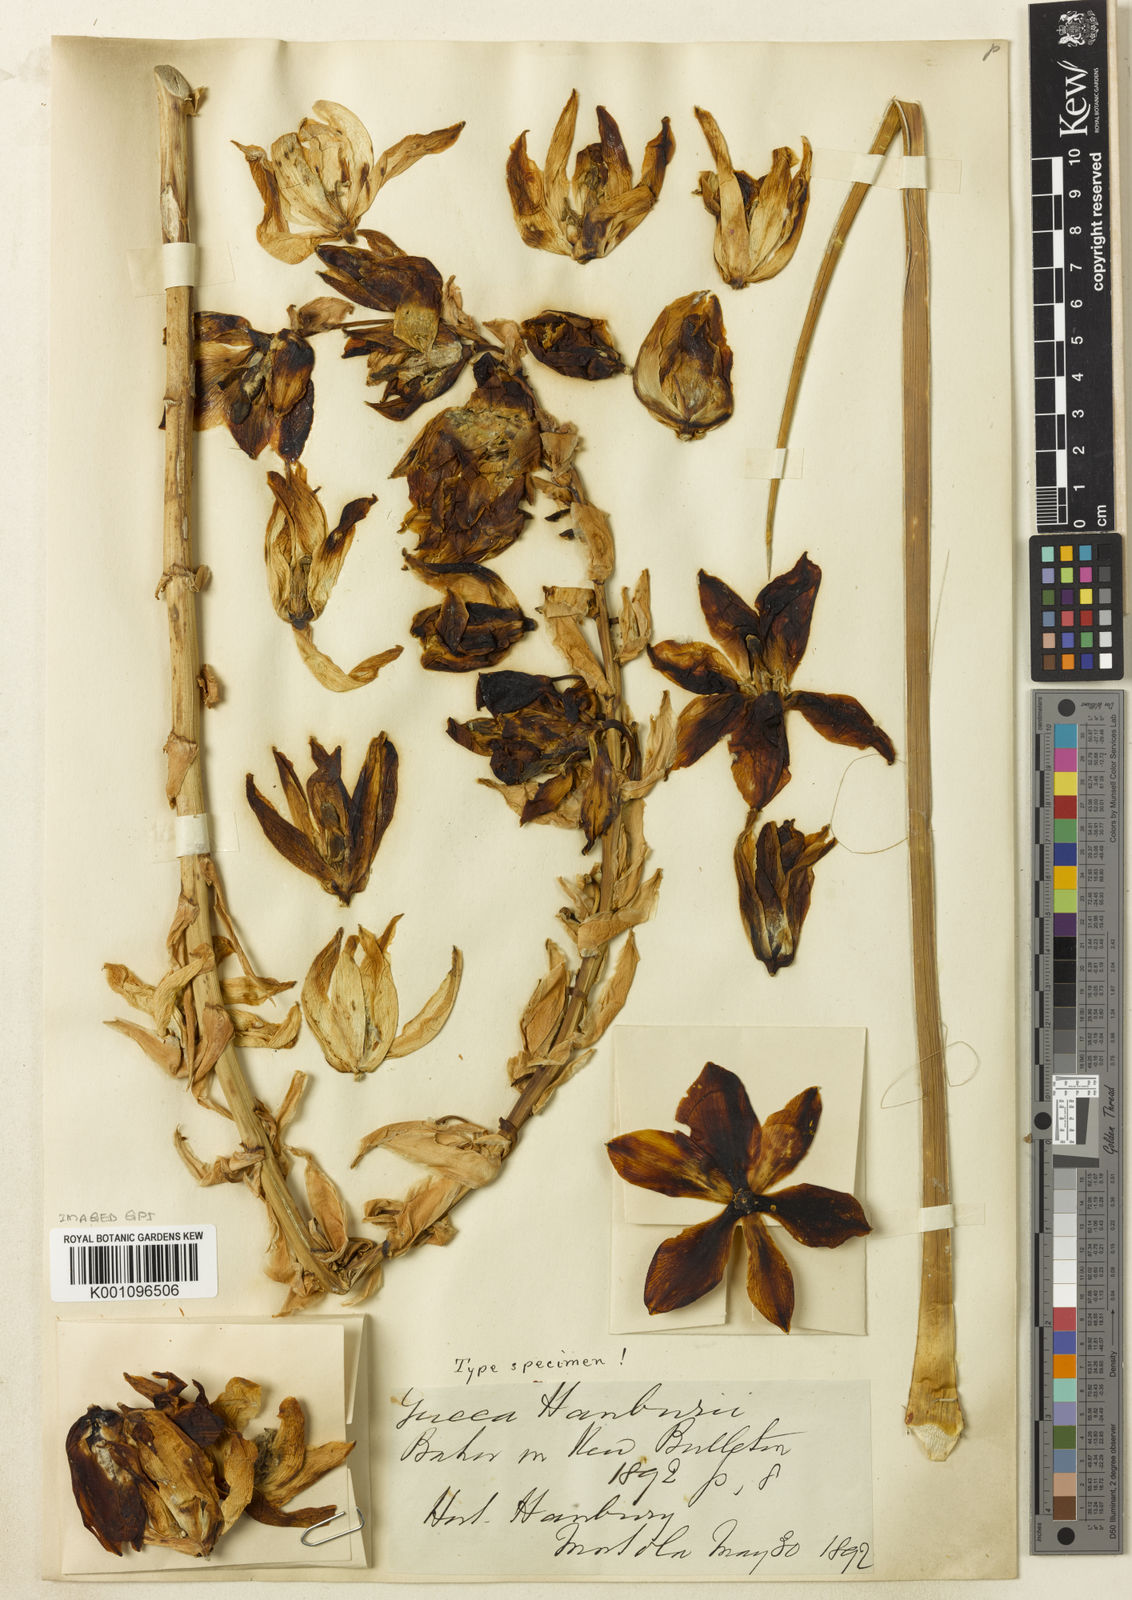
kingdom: Plantae
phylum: Tracheophyta
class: Liliopsida
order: Asparagales
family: Asparagaceae
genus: Yucca
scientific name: Yucca baccata
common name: Banana yucca
